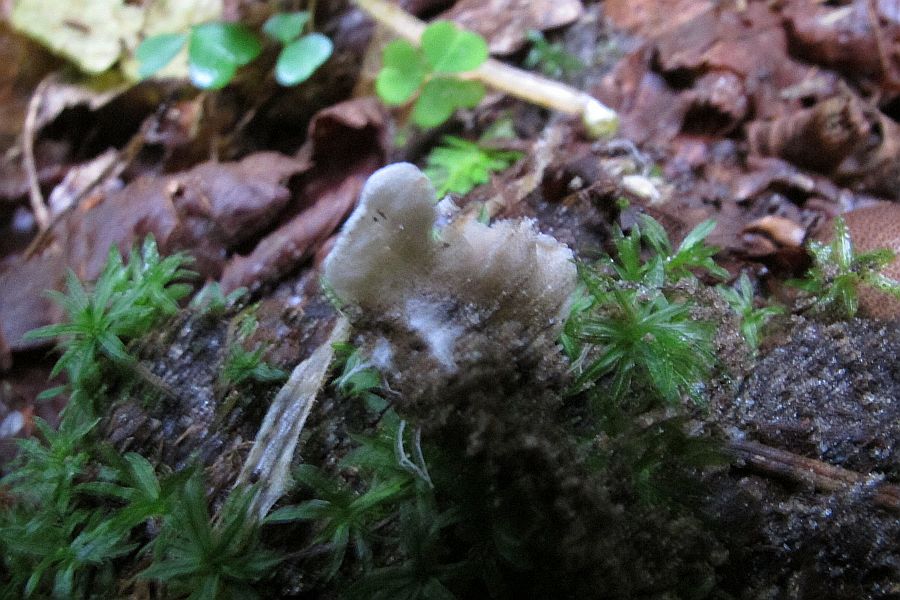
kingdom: Fungi
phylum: Basidiomycota
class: Agaricomycetes
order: Agaricales
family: Entolomataceae
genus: Entoloma
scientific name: Entoloma byssisedum
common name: vifte-rødblad
